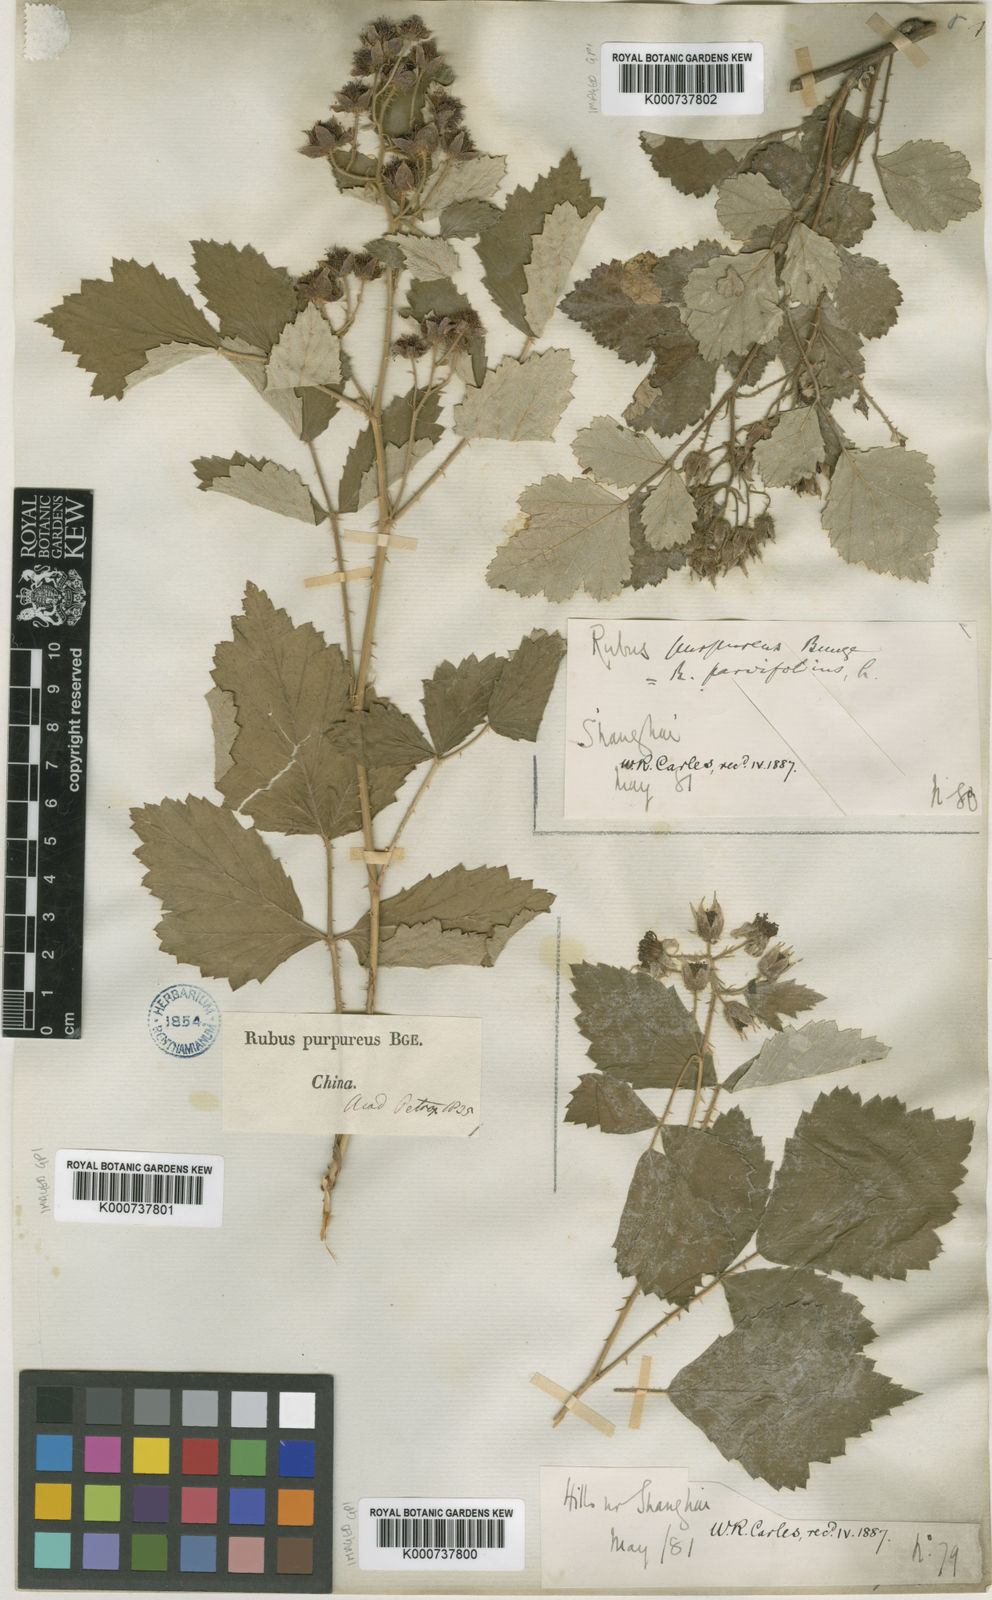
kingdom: Plantae
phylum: Tracheophyta
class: Magnoliopsida
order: Rosales
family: Rosaceae
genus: Rubus
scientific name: Rubus parvifolius
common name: Threeleaf blackberry
